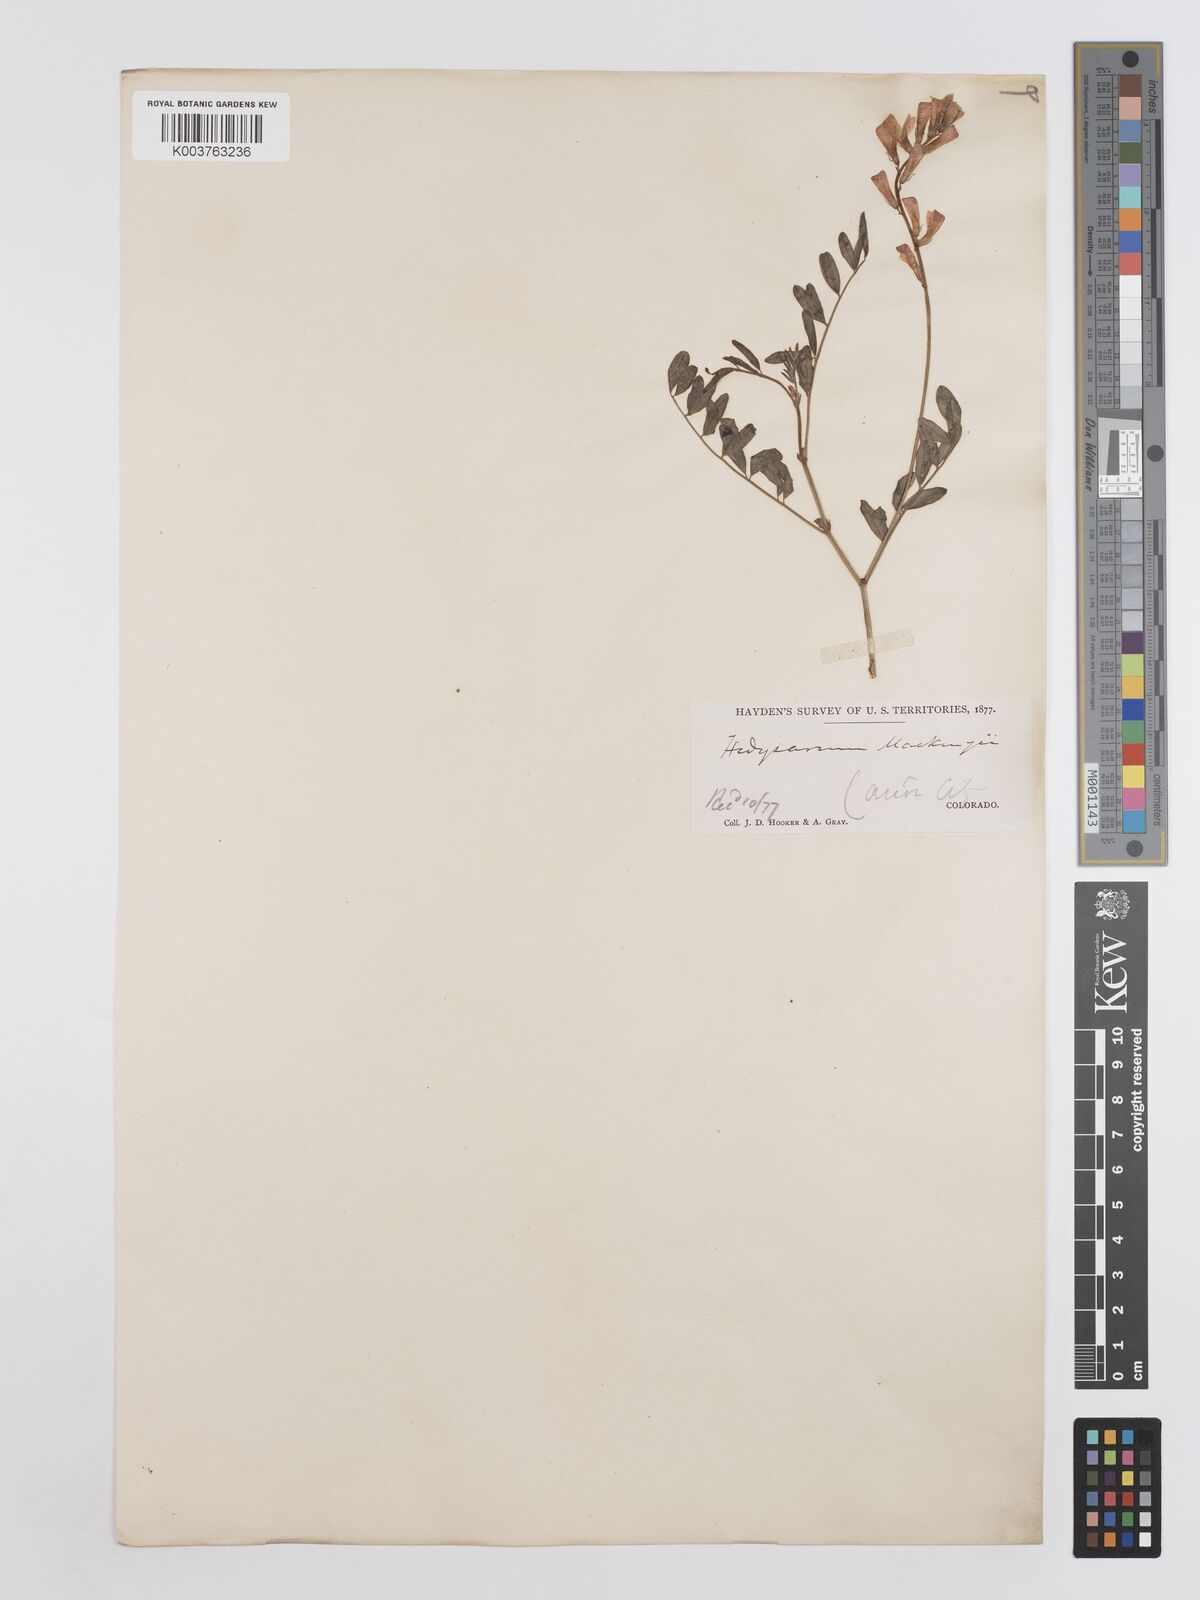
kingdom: Plantae
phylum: Tracheophyta
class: Magnoliopsida
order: Fabales
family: Fabaceae
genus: Hedysarum
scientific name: Hedysarum boreale
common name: Northern sweet-vetch
